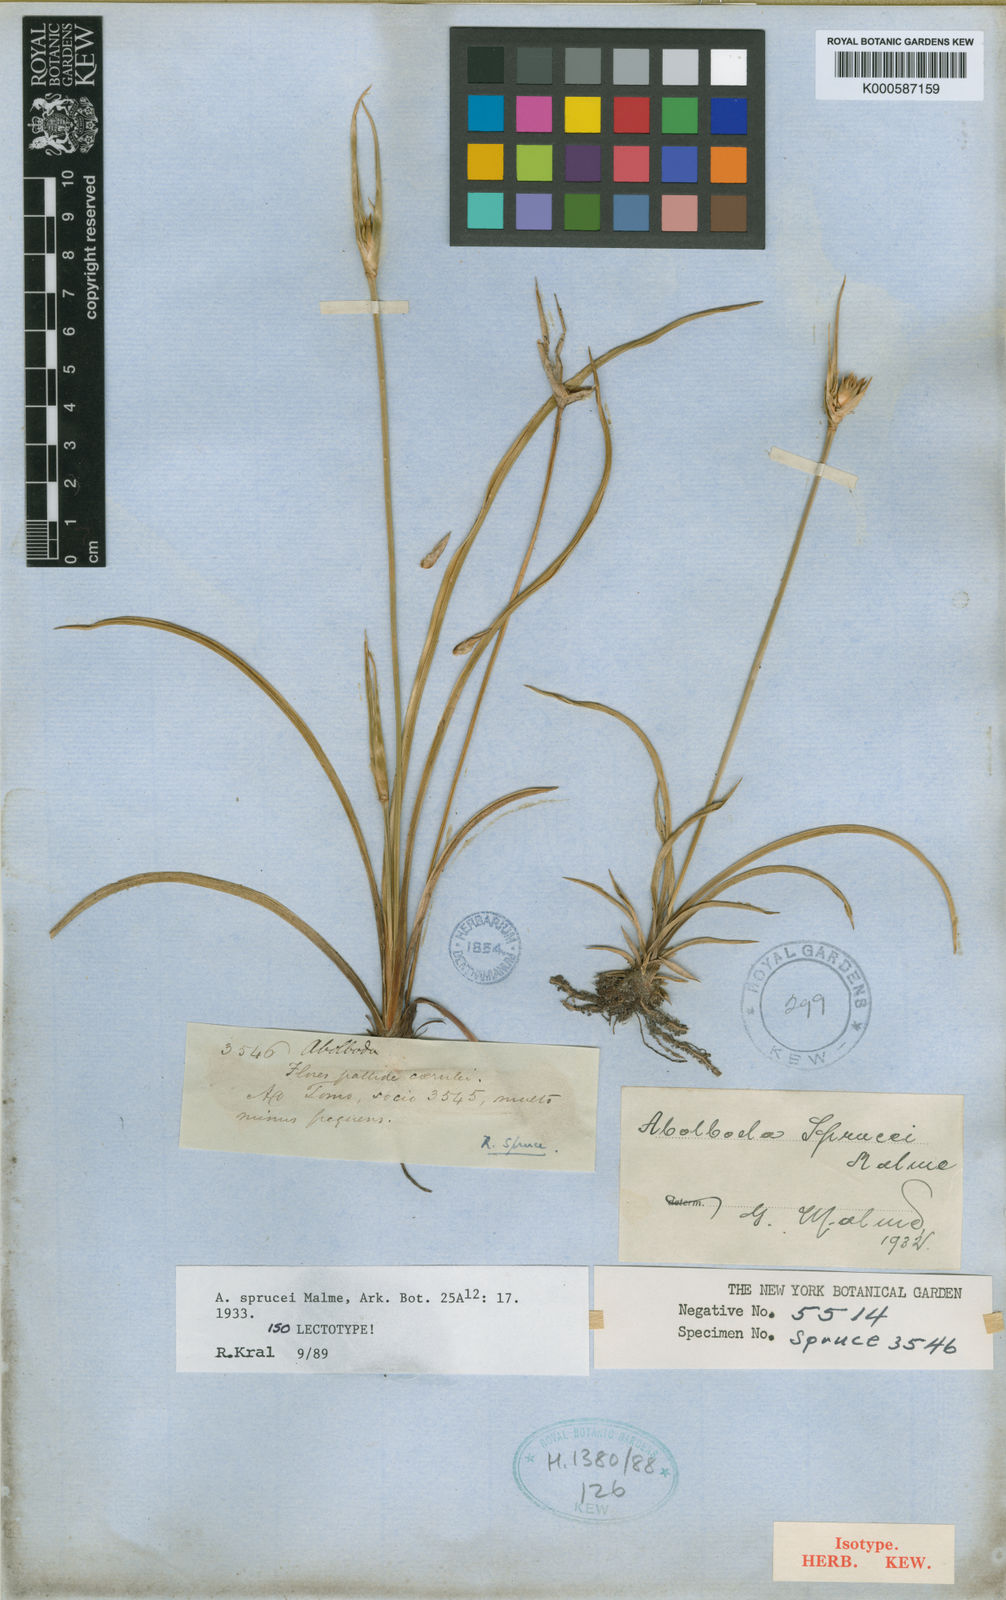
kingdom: Plantae
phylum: Tracheophyta
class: Liliopsida
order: Poales
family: Xyridaceae
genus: Abolboda
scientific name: Abolboda sprucei
